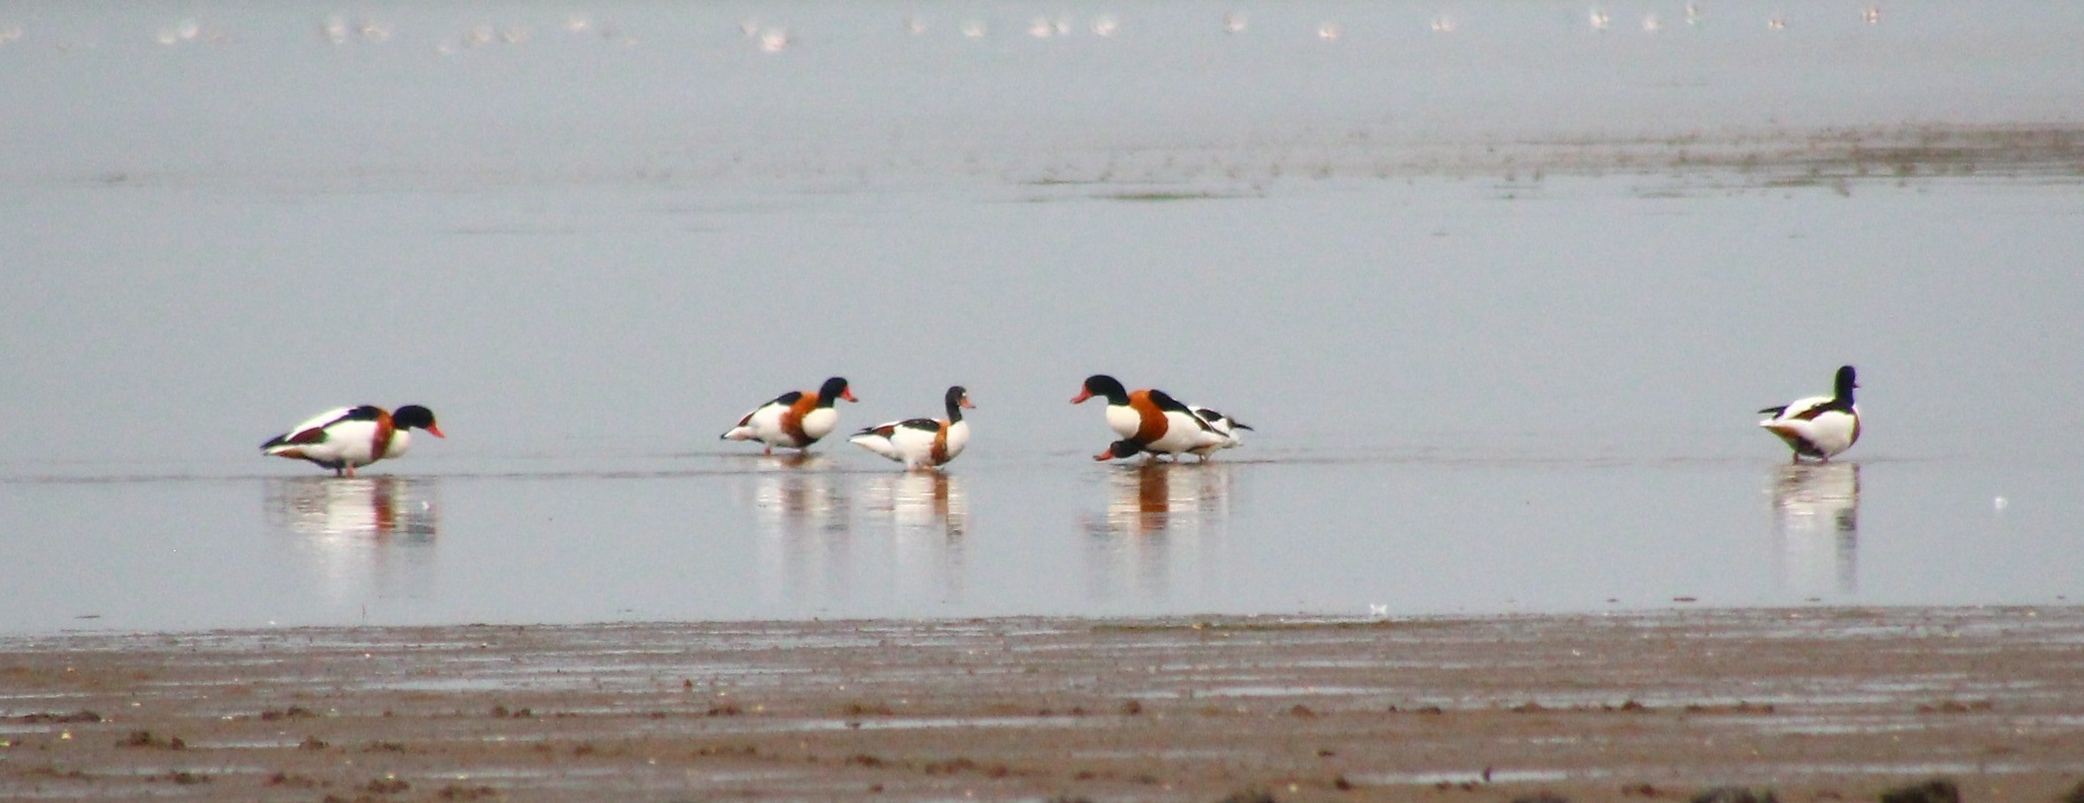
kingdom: Animalia
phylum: Chordata
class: Aves
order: Anseriformes
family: Anatidae
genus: Tadorna
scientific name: Tadorna tadorna
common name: Gravand
